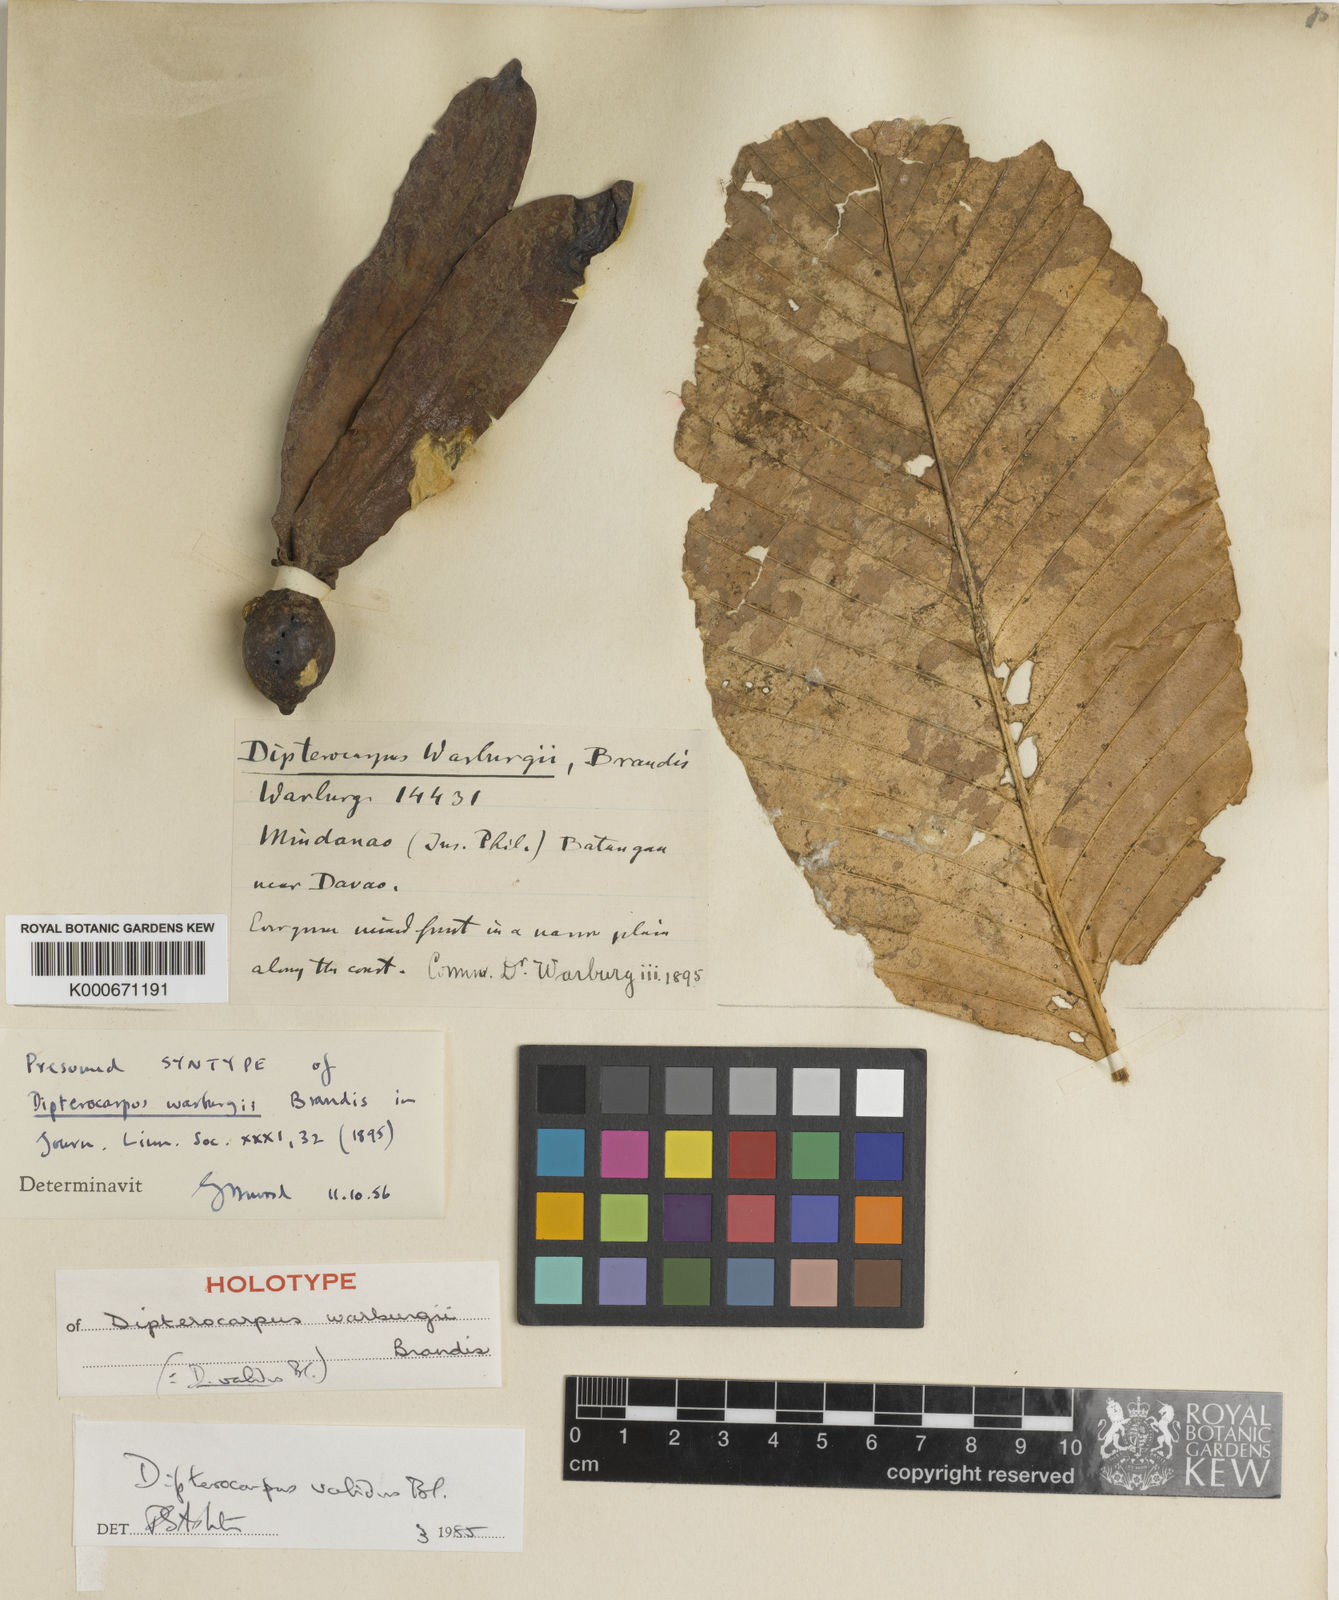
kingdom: Plantae
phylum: Tracheophyta
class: Magnoliopsida
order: Malvales
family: Dipterocarpaceae
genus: Dipterocarpus
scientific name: Dipterocarpus validus
